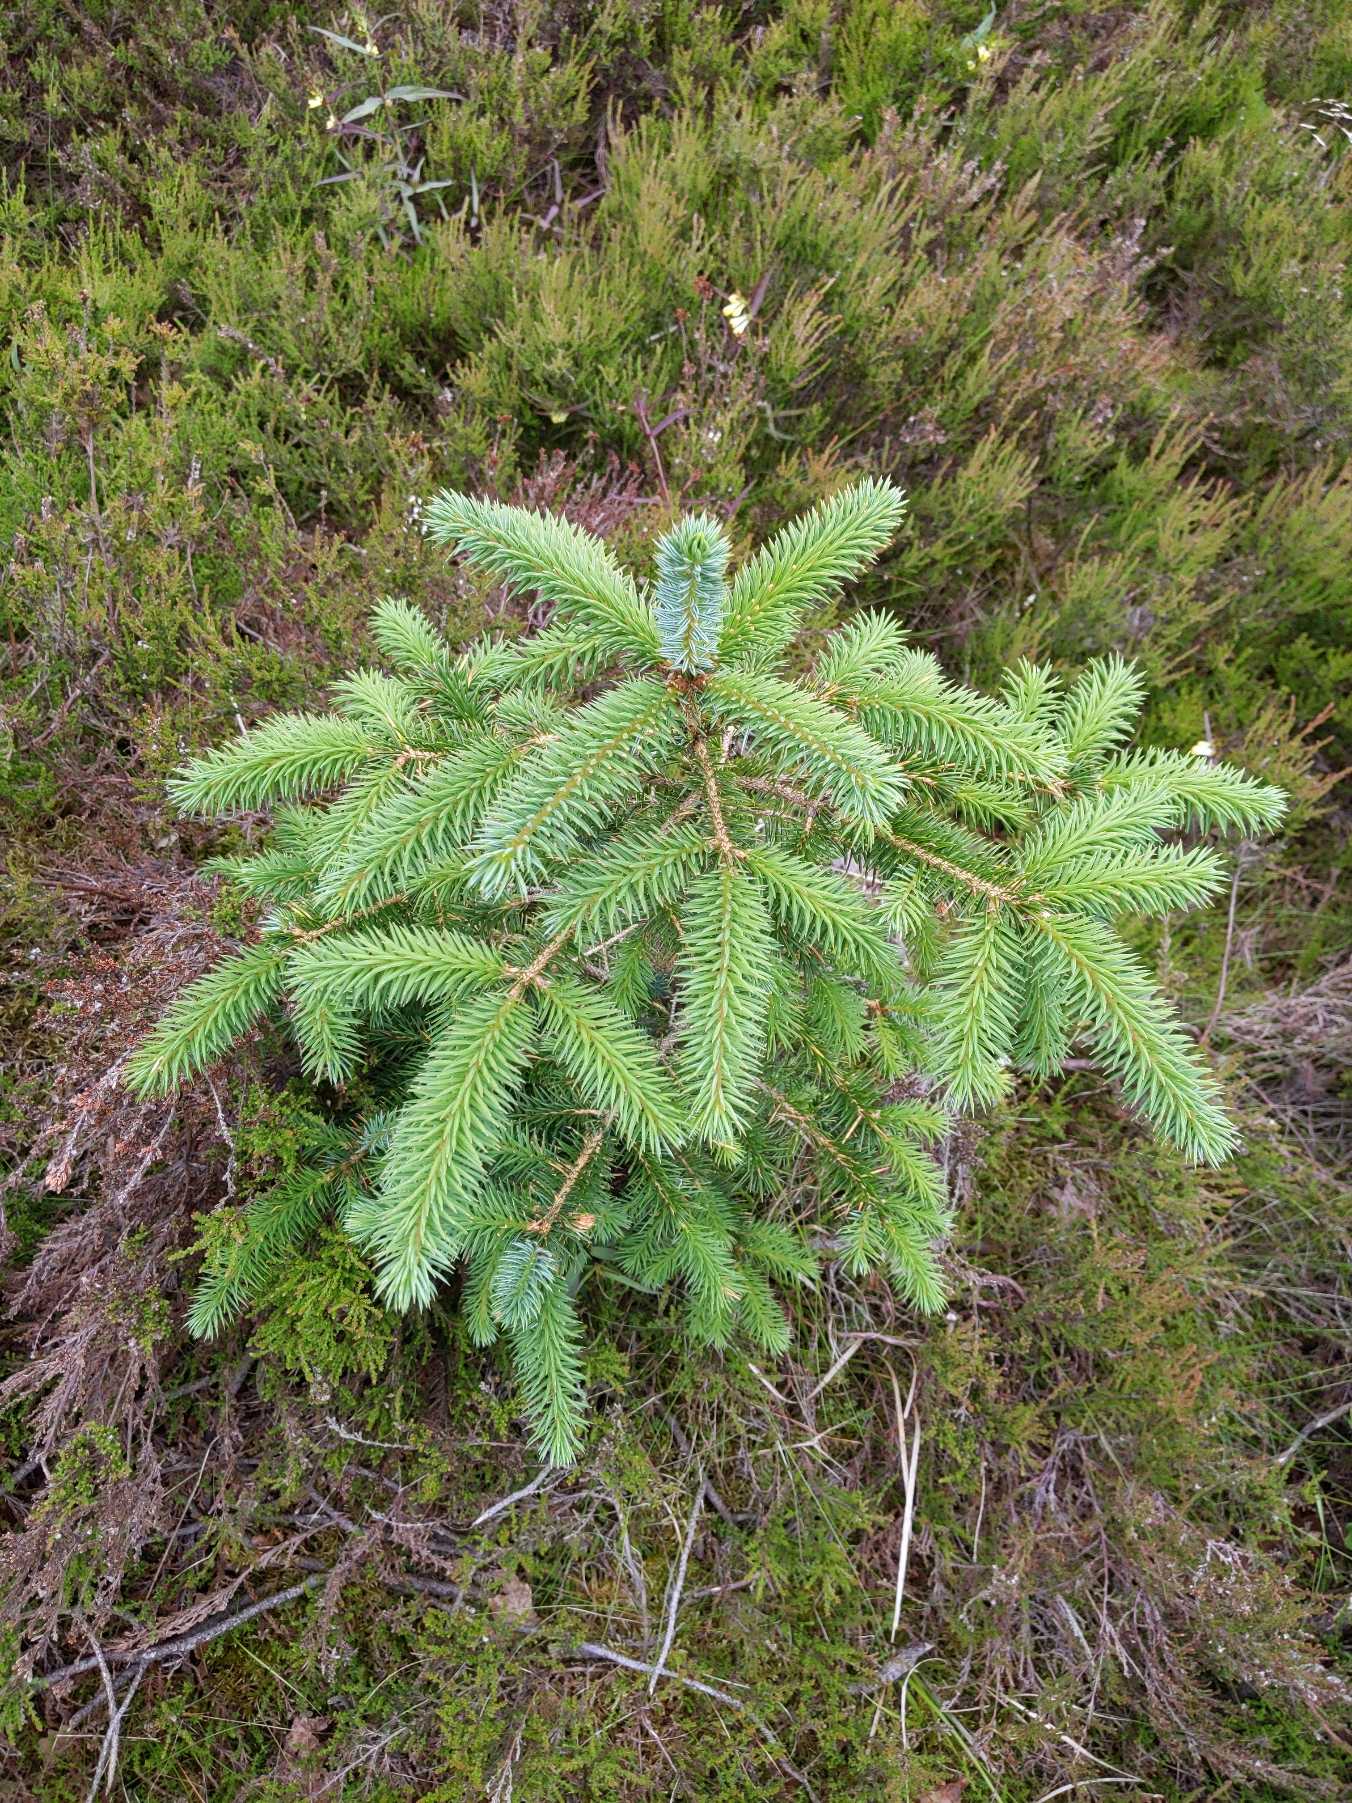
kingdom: Plantae
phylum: Tracheophyta
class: Pinopsida
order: Pinales
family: Pinaceae
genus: Picea
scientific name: Picea sitchensis
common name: Sitka-gran
